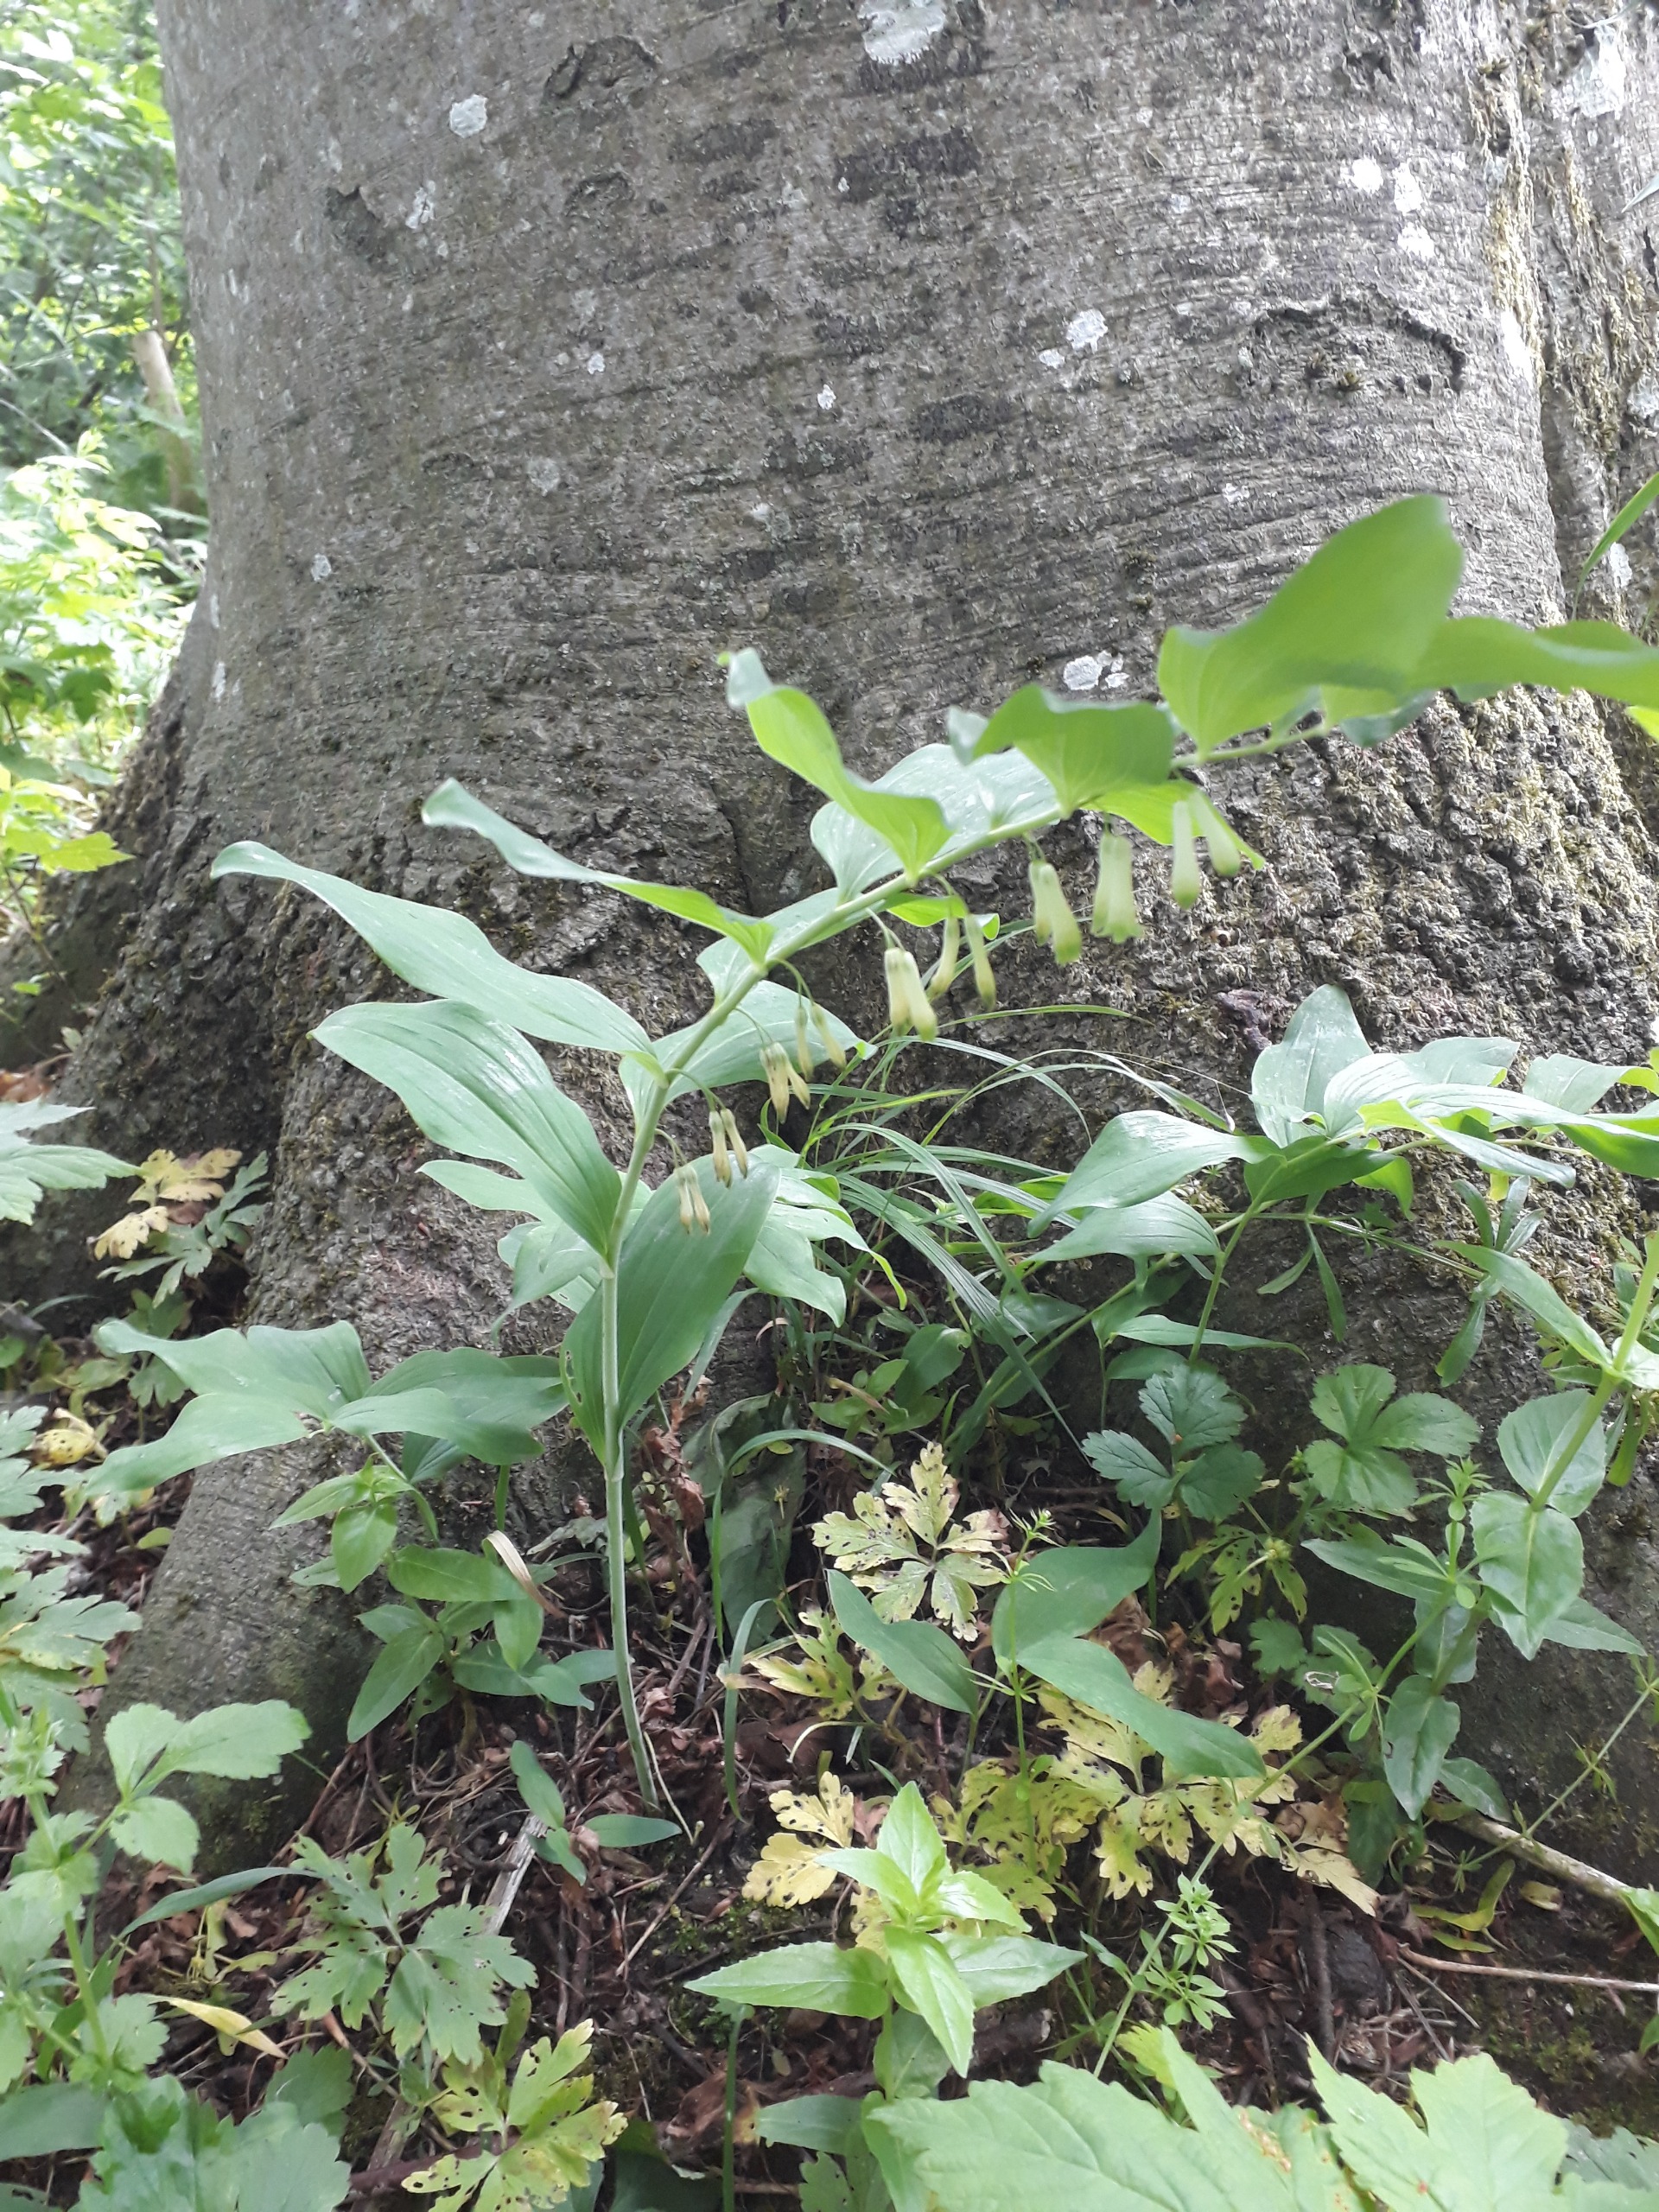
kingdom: Plantae
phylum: Tracheophyta
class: Liliopsida
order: Asparagales
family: Asparagaceae
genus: Polygonatum
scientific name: Polygonatum multiflorum
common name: Stor konval
